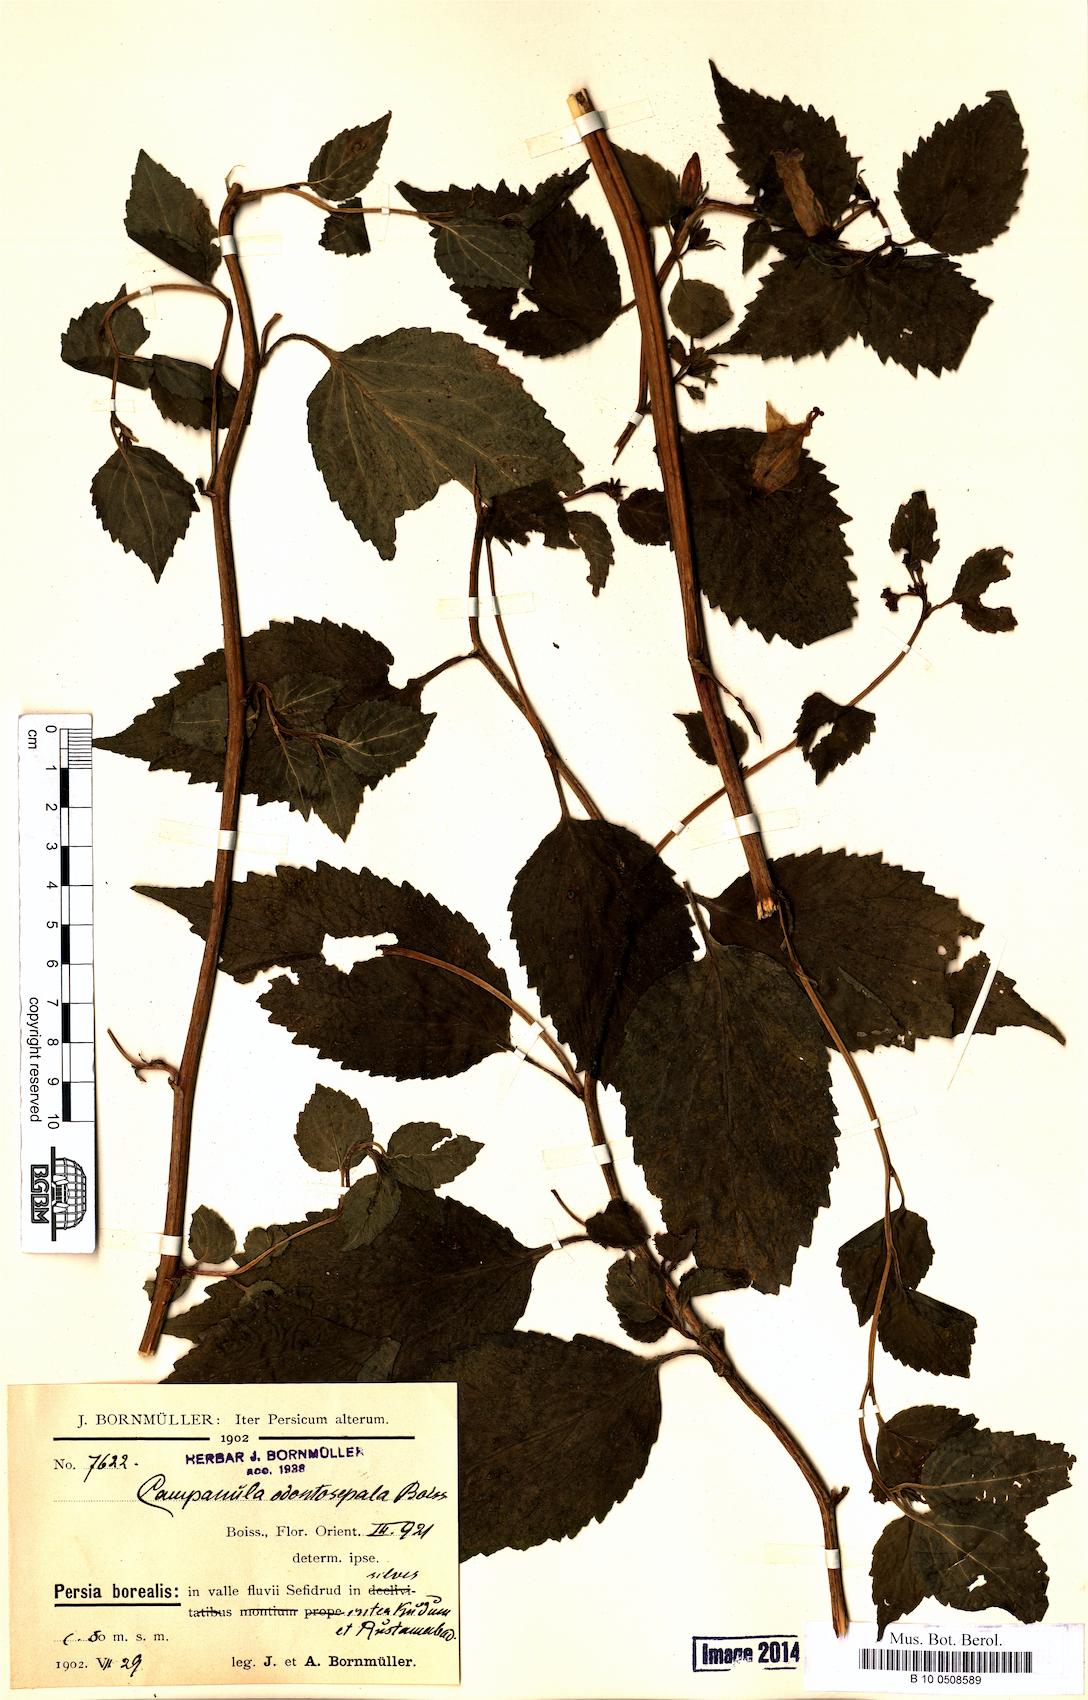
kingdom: Plantae
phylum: Tracheophyta
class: Magnoliopsida
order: Asterales
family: Campanulaceae
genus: Campanula
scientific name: Campanula odontosepala
